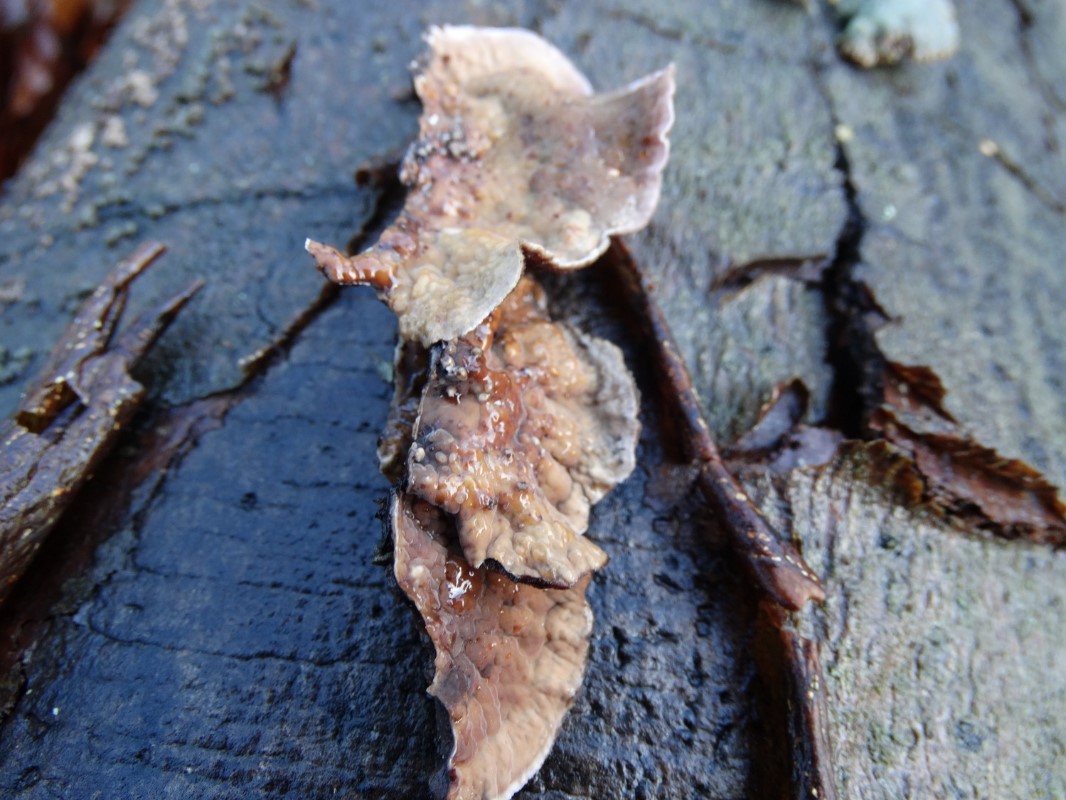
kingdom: Fungi
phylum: Basidiomycota
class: Agaricomycetes
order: Agaricales
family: Cyphellaceae
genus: Chondrostereum
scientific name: Chondrostereum purpureum
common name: purpurlædersvamp
